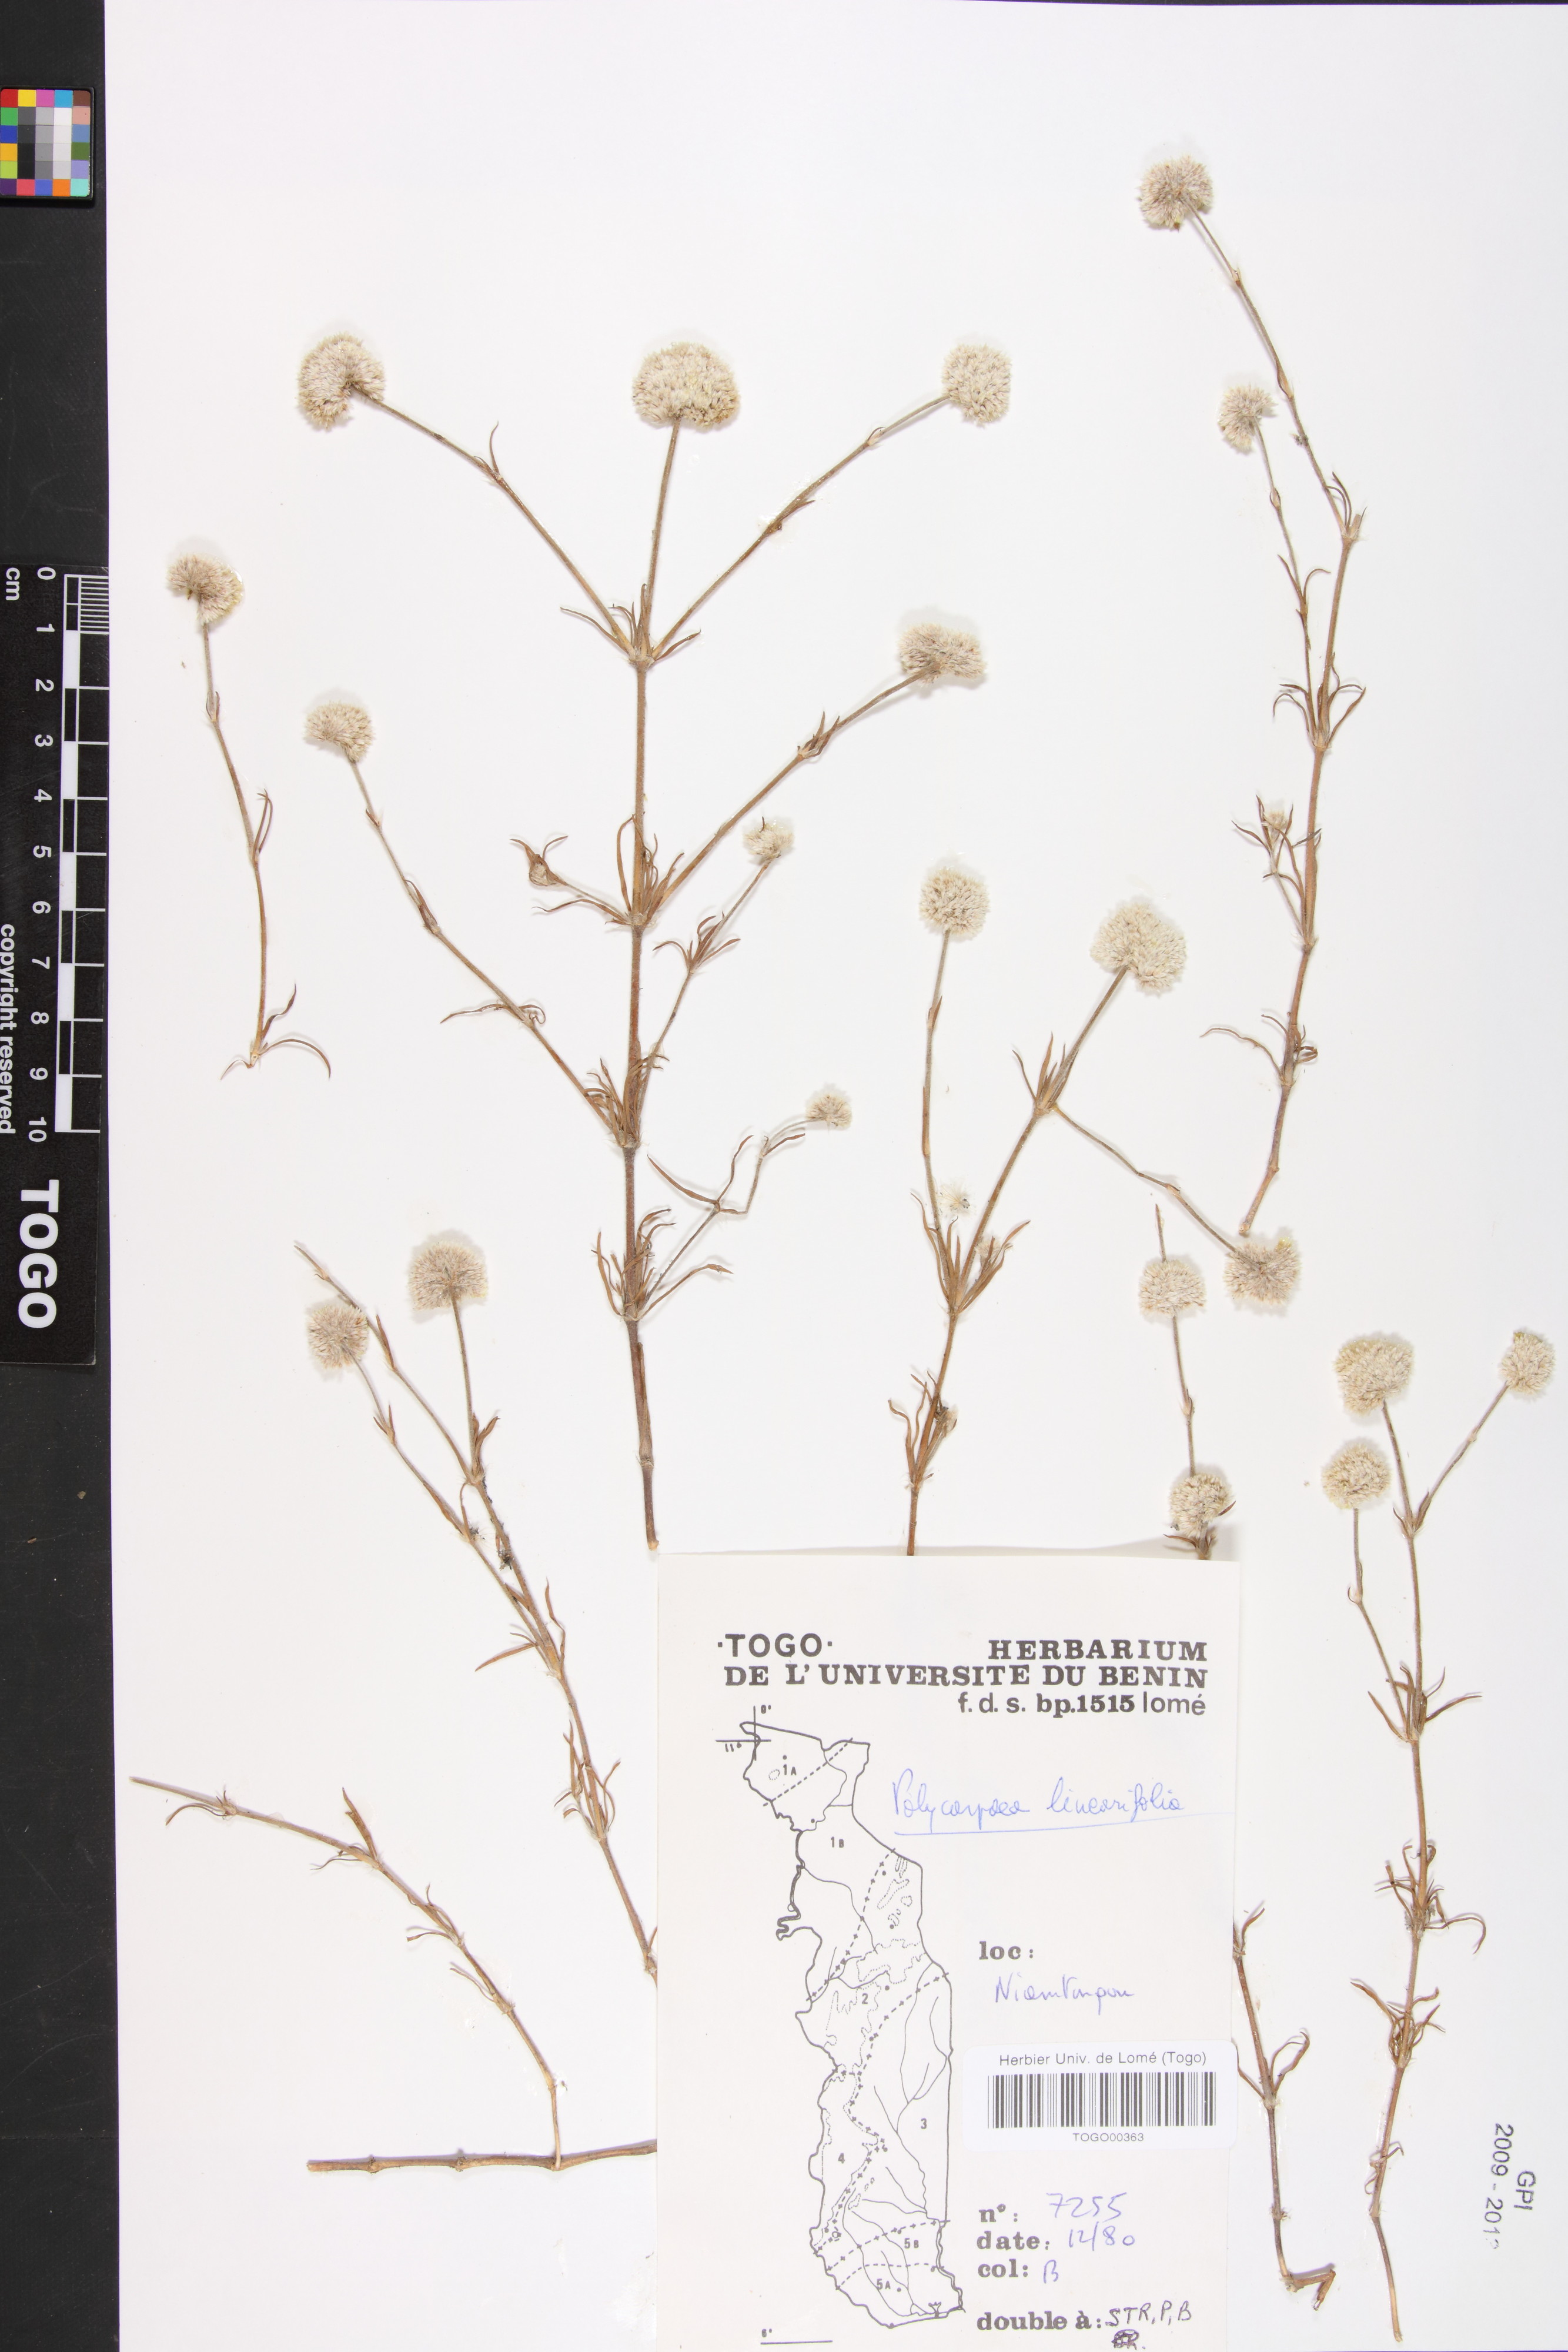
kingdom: Plantae
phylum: Tracheophyta
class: Magnoliopsida
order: Caryophyllales
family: Caryophyllaceae
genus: Polycarpaea
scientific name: Polycarpaea linearifolia
